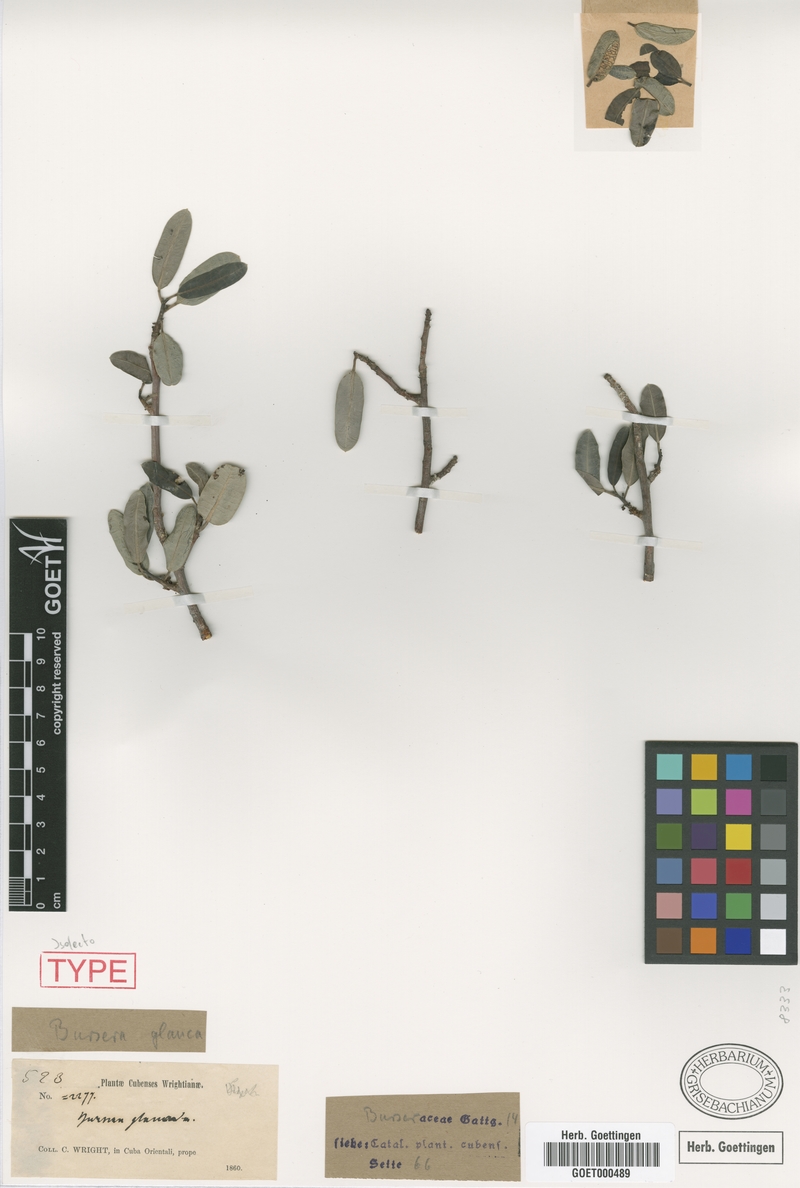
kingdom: Plantae
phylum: Tracheophyta
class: Magnoliopsida
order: Sapindales
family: Burseraceae
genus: Bursera
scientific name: Bursera glauca
